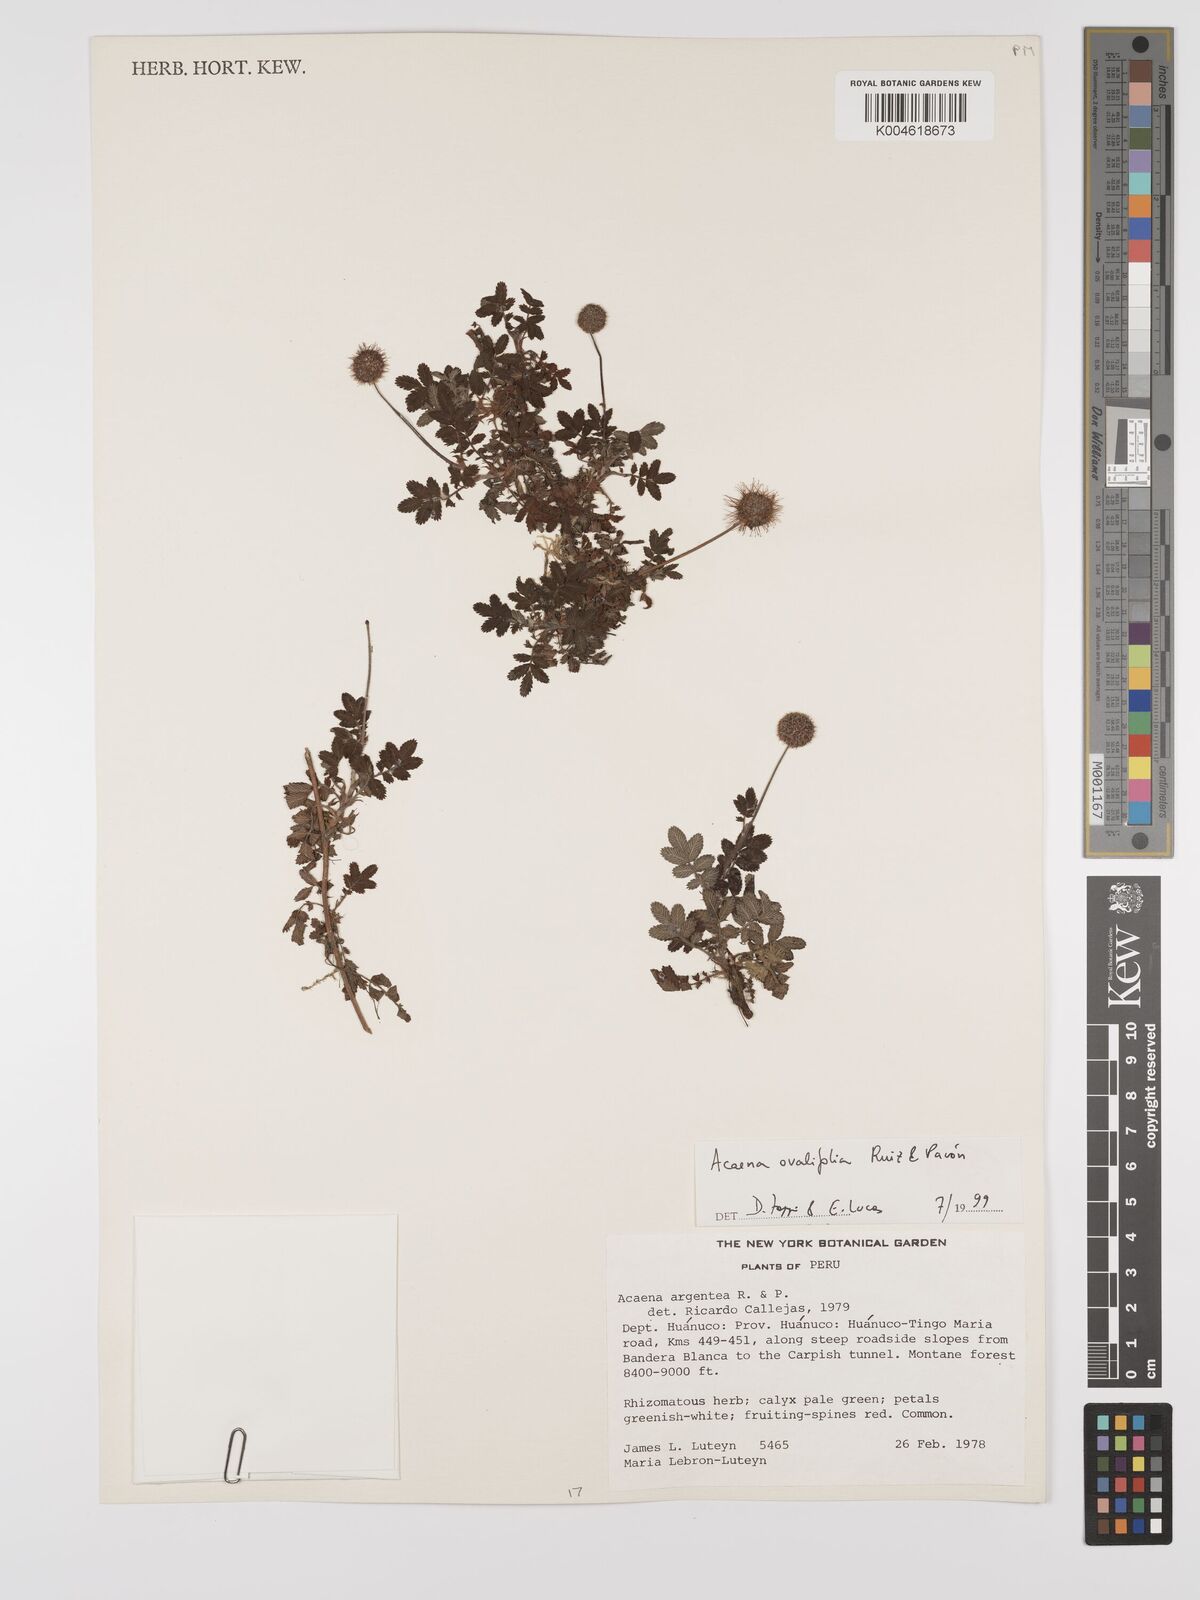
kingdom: Plantae
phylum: Tracheophyta
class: Magnoliopsida
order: Rosales
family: Rosaceae
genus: Acaena
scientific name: Acaena ovalifolia
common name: Two-spined acaena
